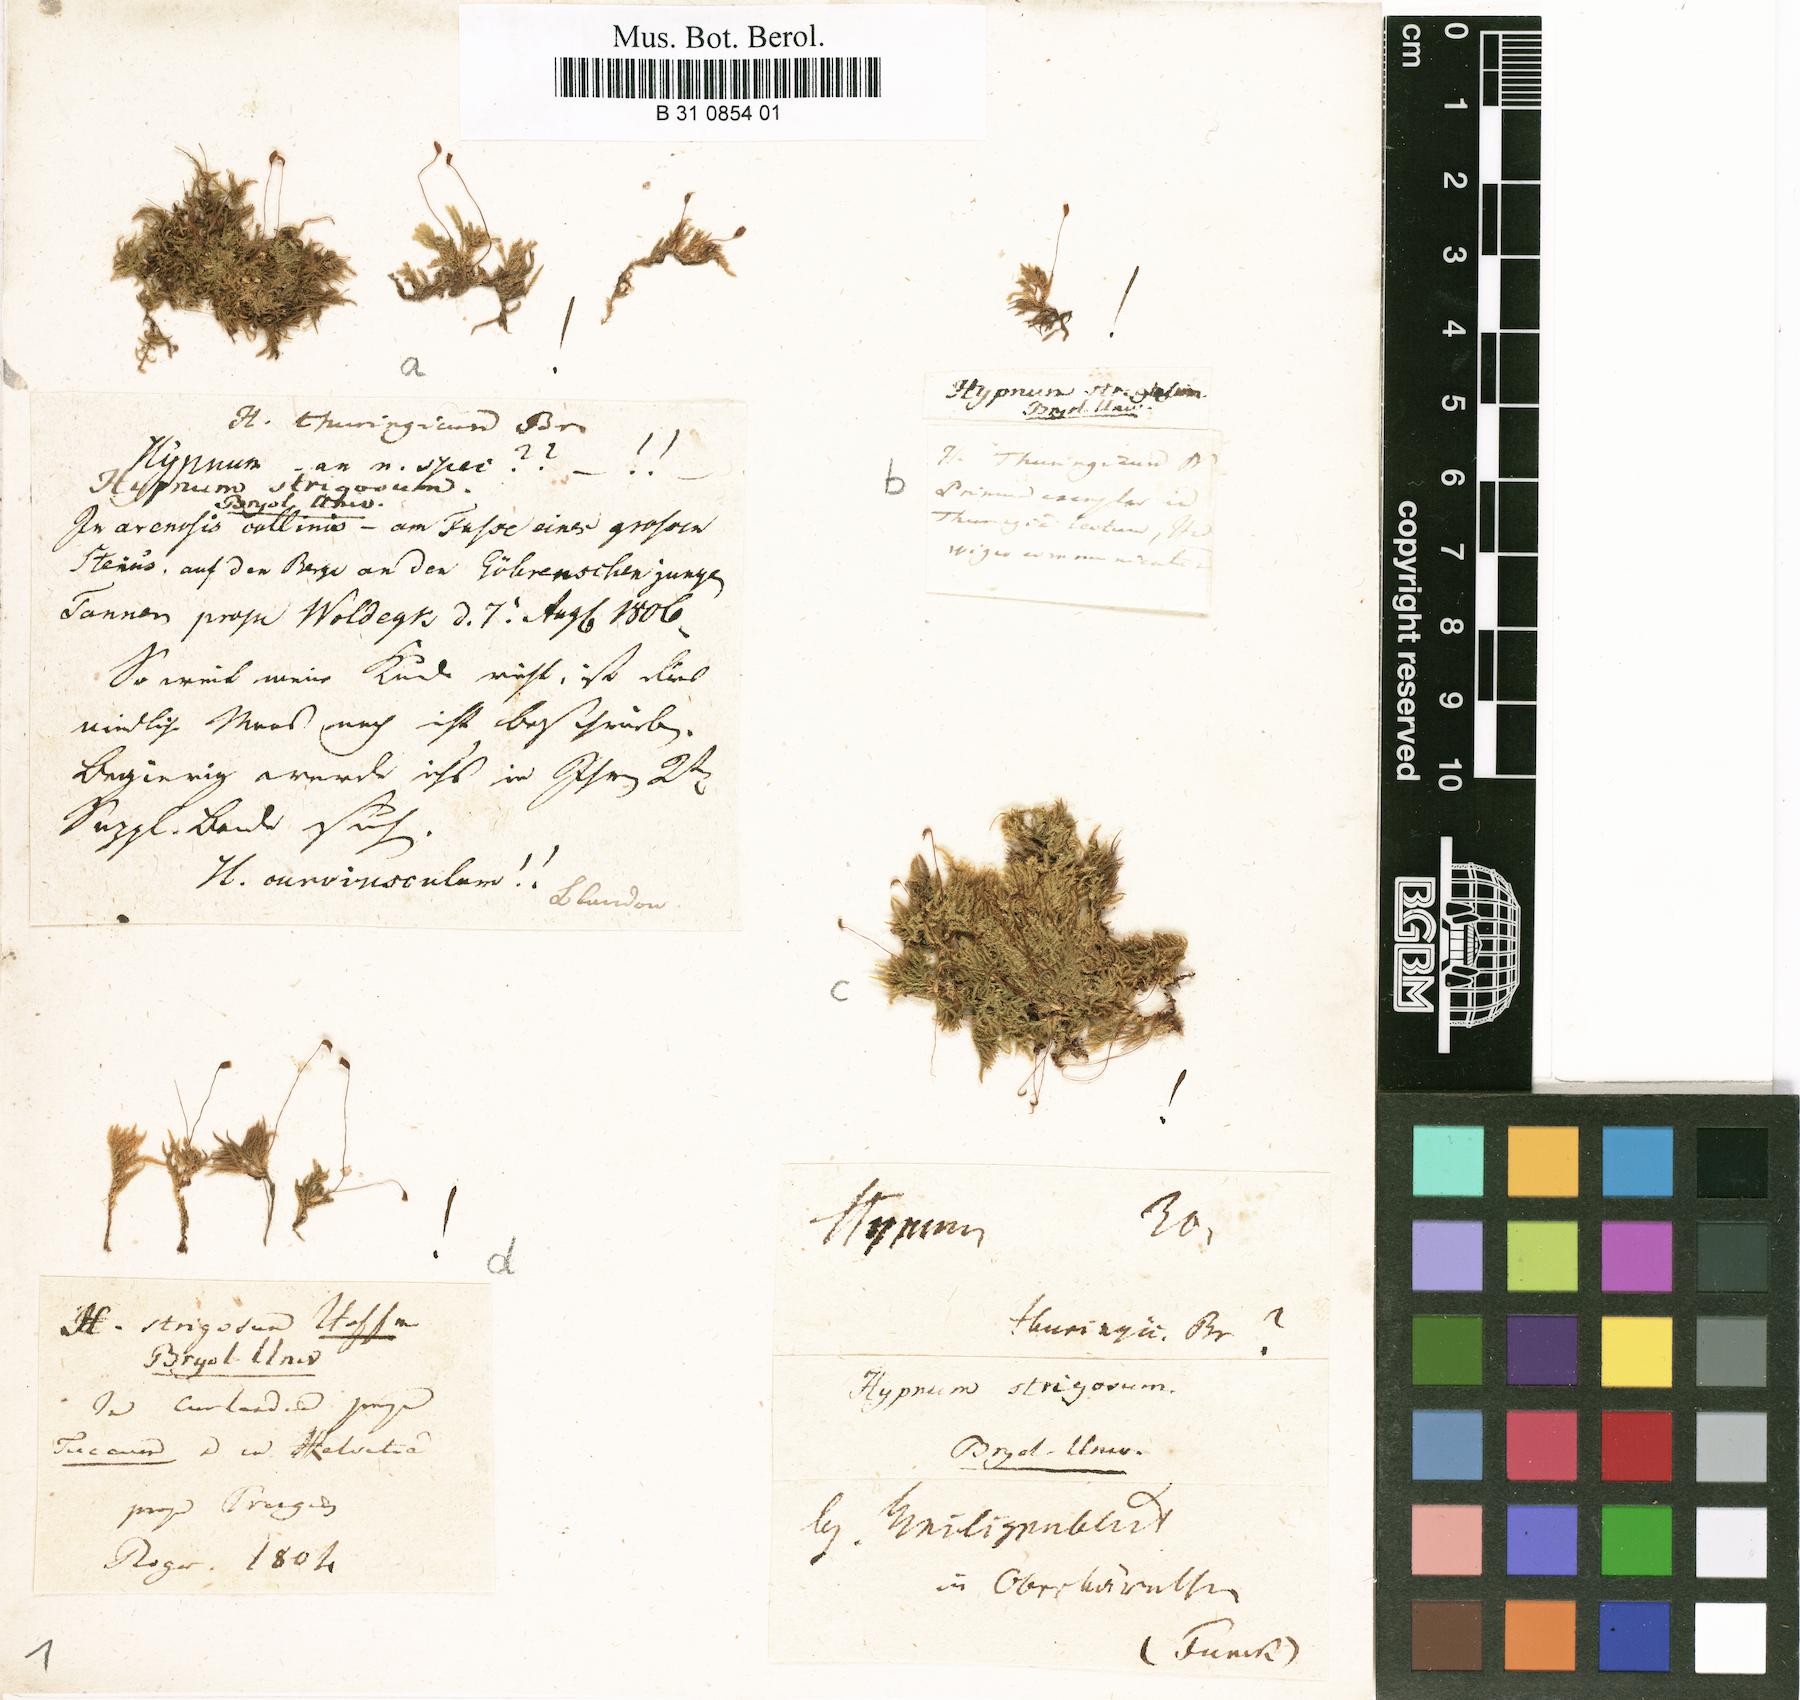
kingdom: Plantae
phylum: Bryophyta
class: Bryopsida
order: Hypnales
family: Brachytheciaceae
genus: Eurhynchiastrum
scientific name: Eurhynchiastrum pulchellum
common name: Elegant beaked moss
